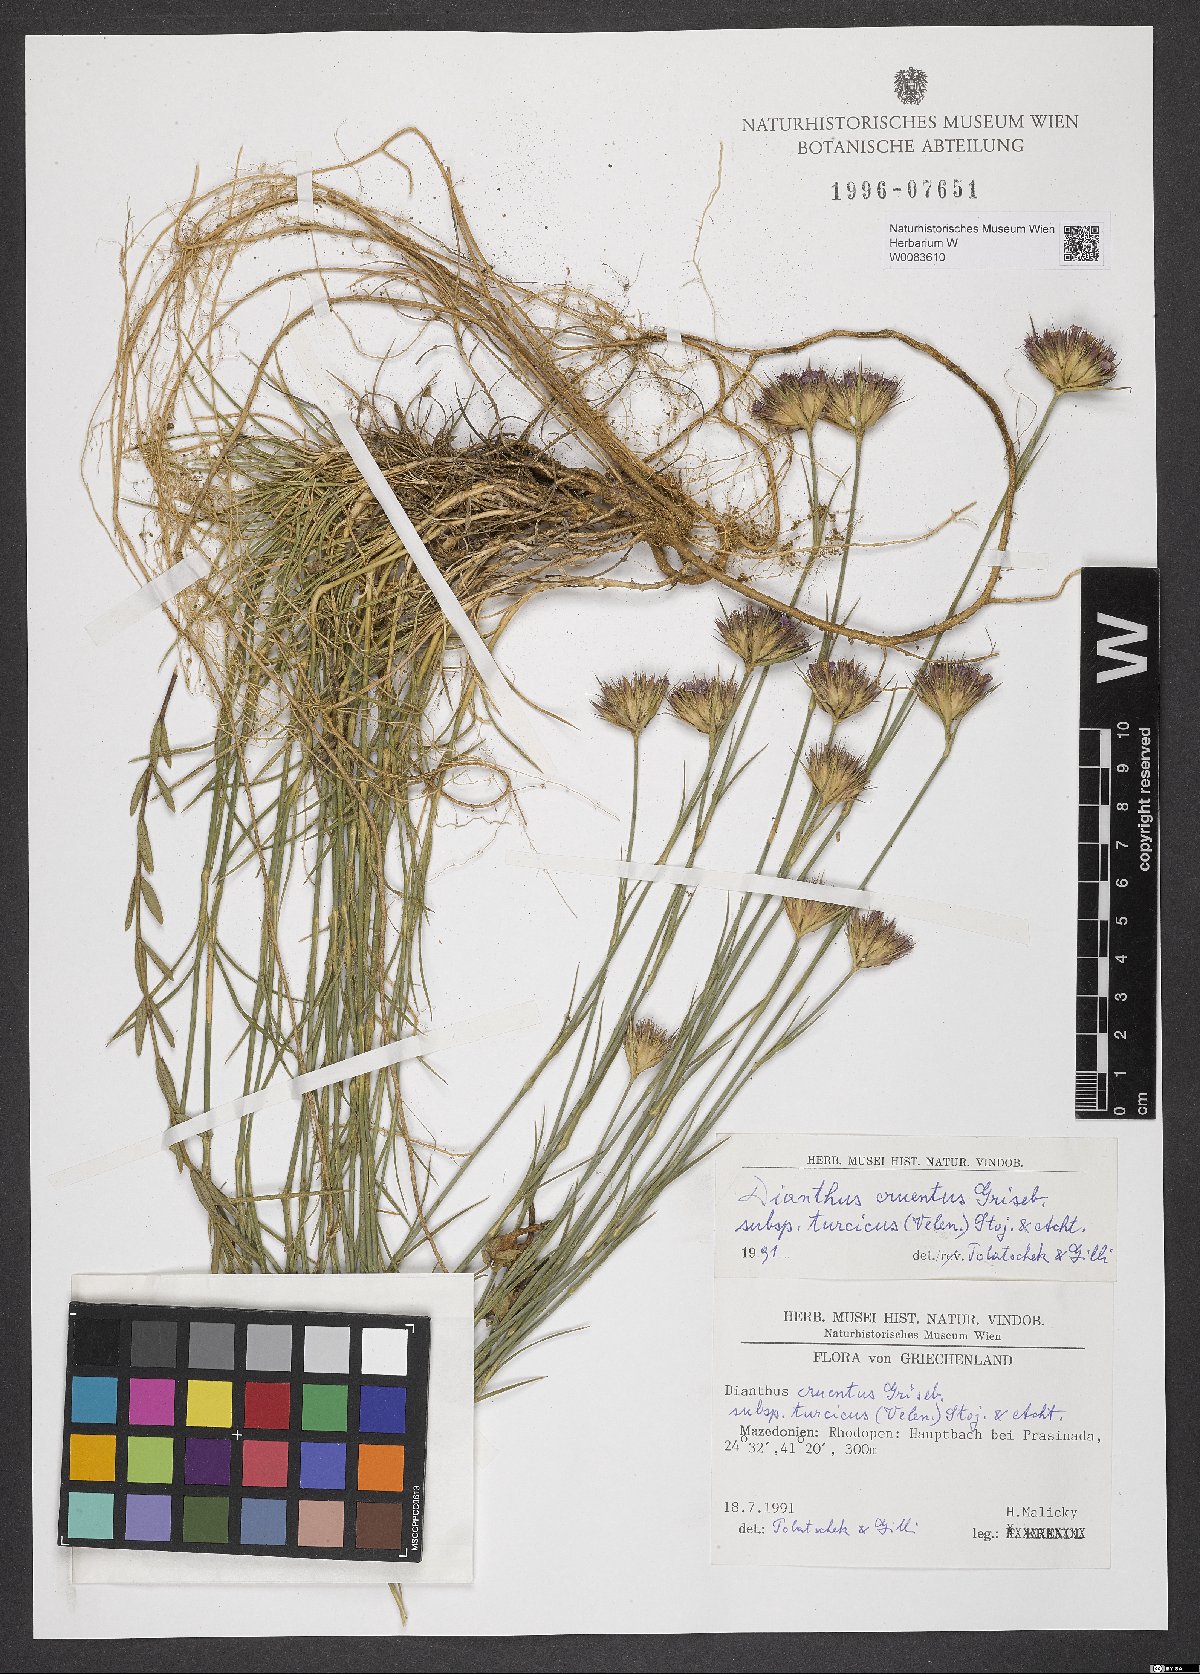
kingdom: Plantae
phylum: Tracheophyta
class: Magnoliopsida
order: Caryophyllales
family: Caryophyllaceae
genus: Dianthus
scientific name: Dianthus cruentus
